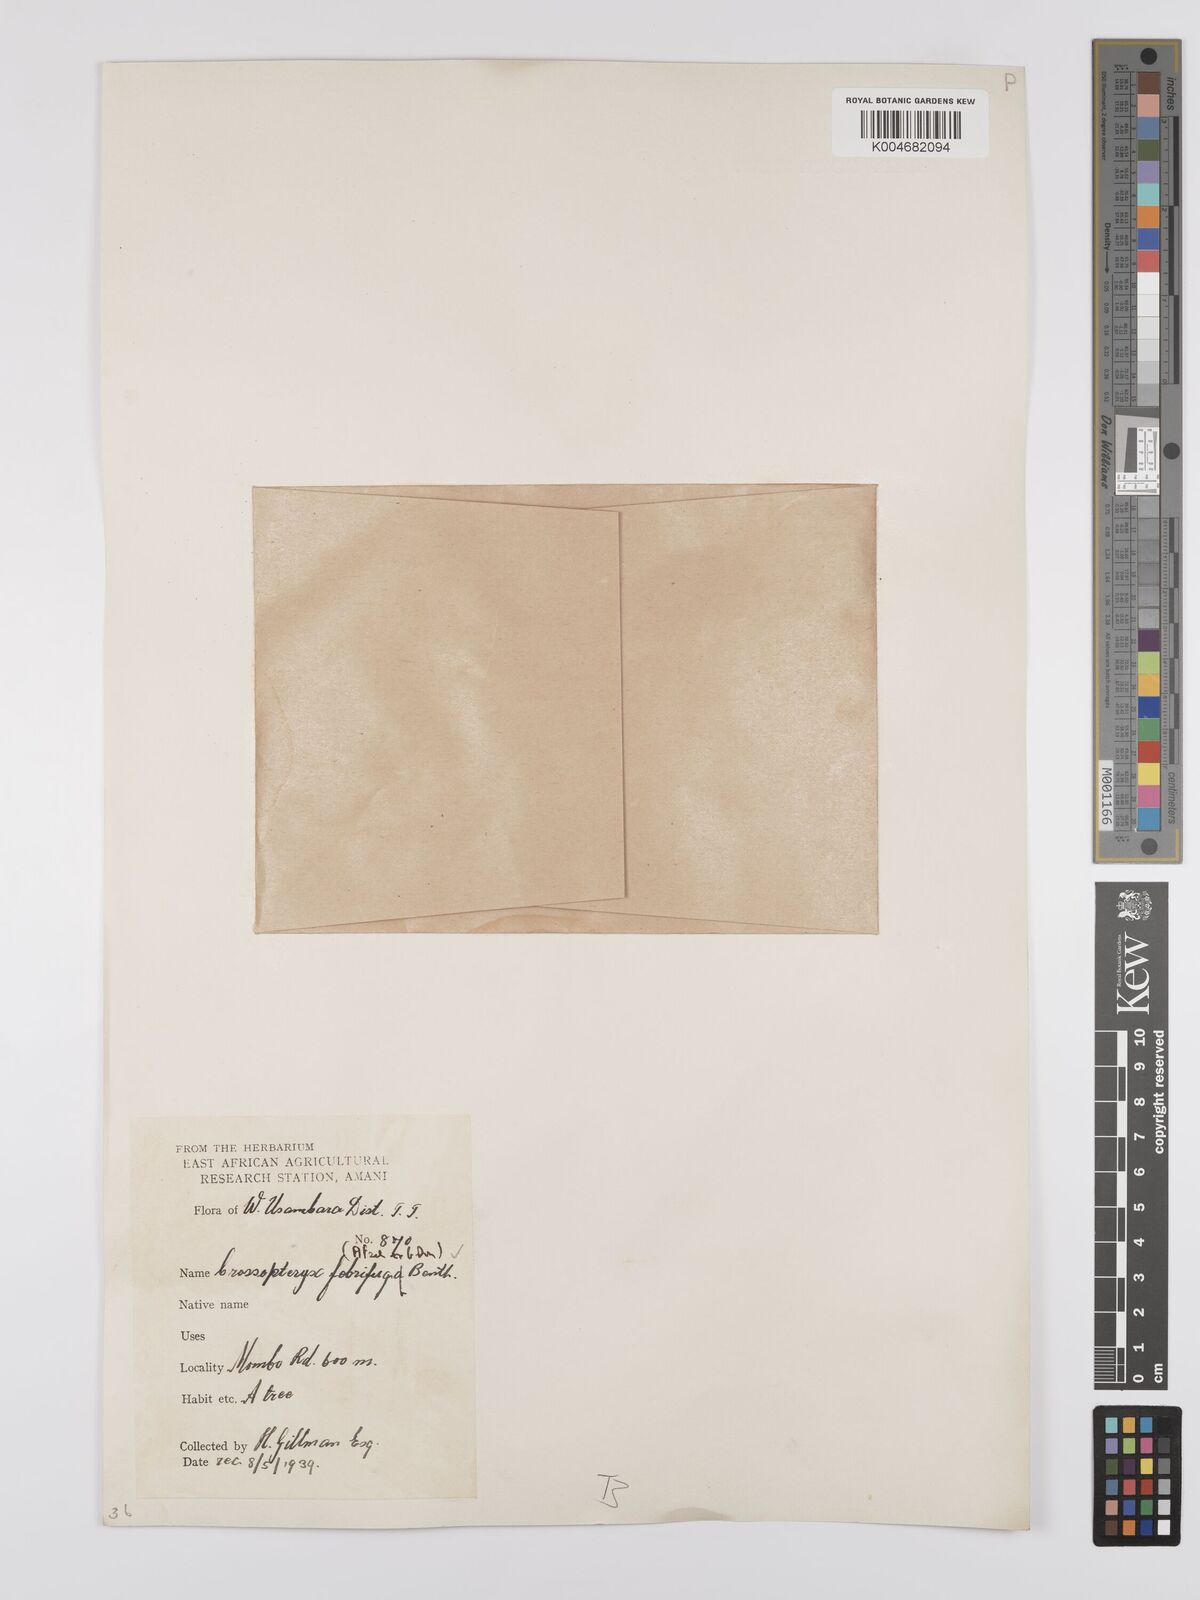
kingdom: Plantae
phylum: Tracheophyta
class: Magnoliopsida
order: Gentianales
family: Rubiaceae
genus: Crossopteryx
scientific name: Crossopteryx
